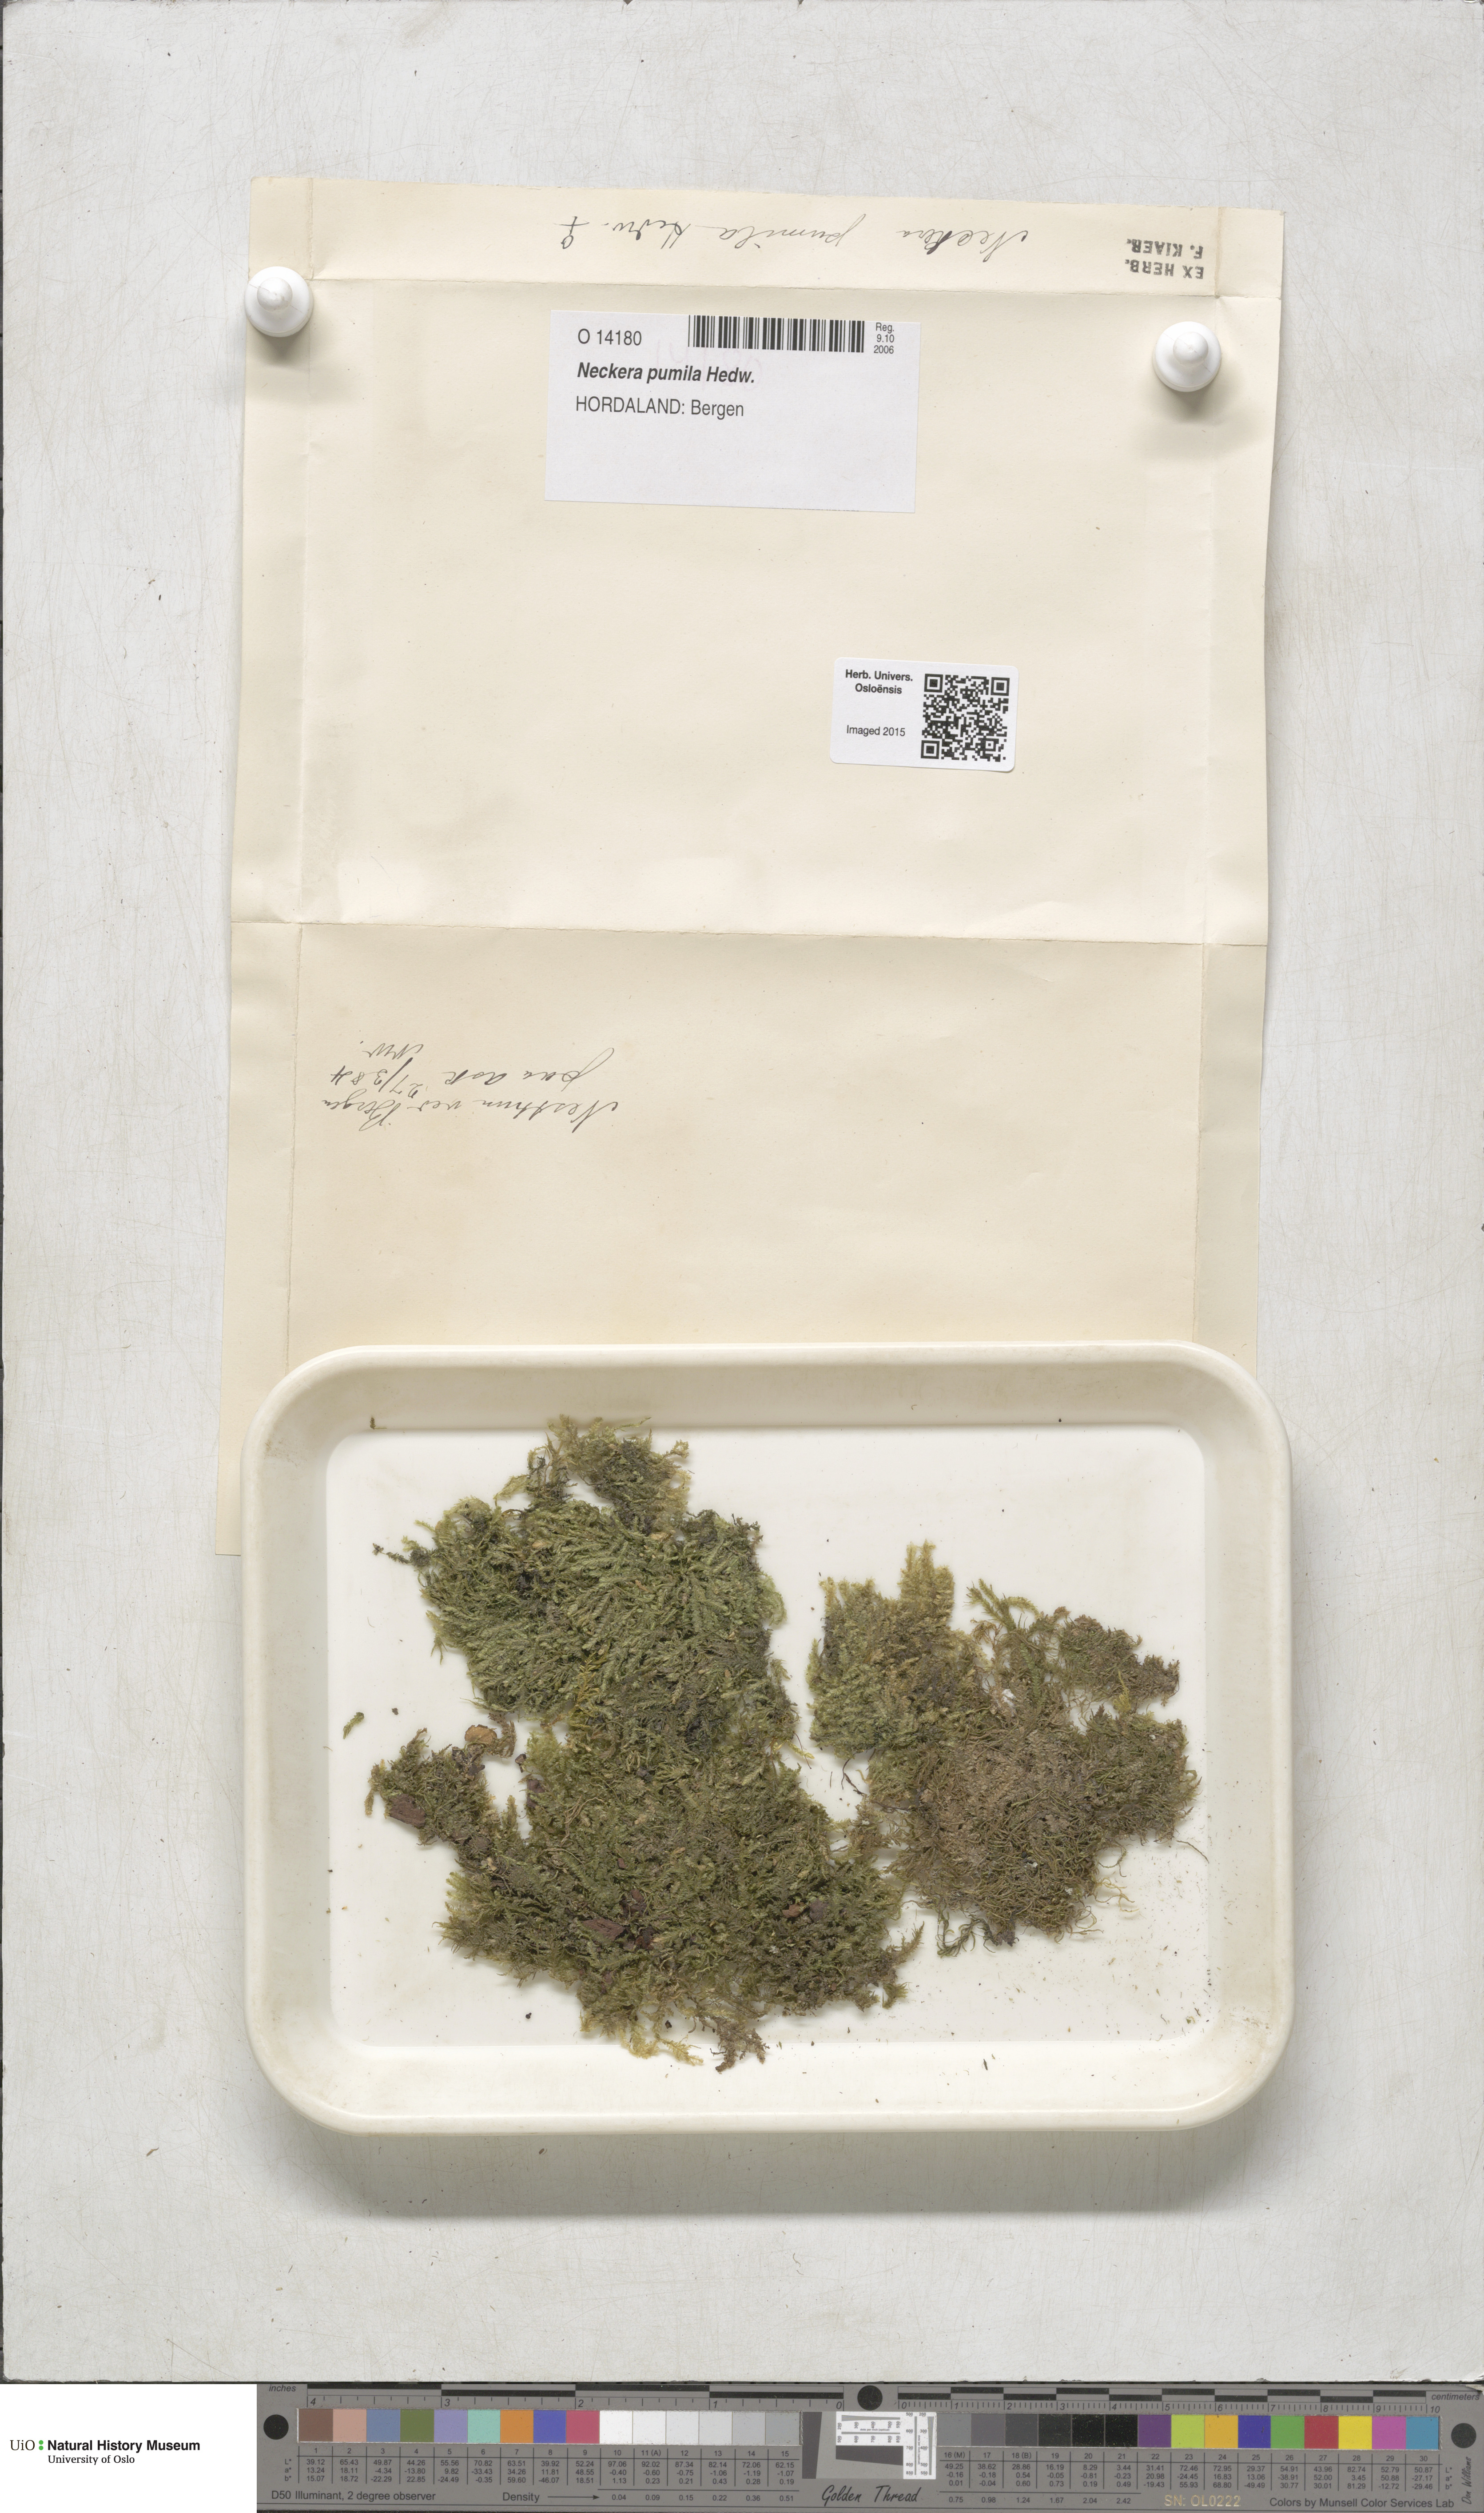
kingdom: Plantae
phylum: Bryophyta
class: Bryopsida
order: Hypnales
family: Neckeraceae
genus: Neckera
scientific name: Neckera pumila
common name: Dwarf neckera
